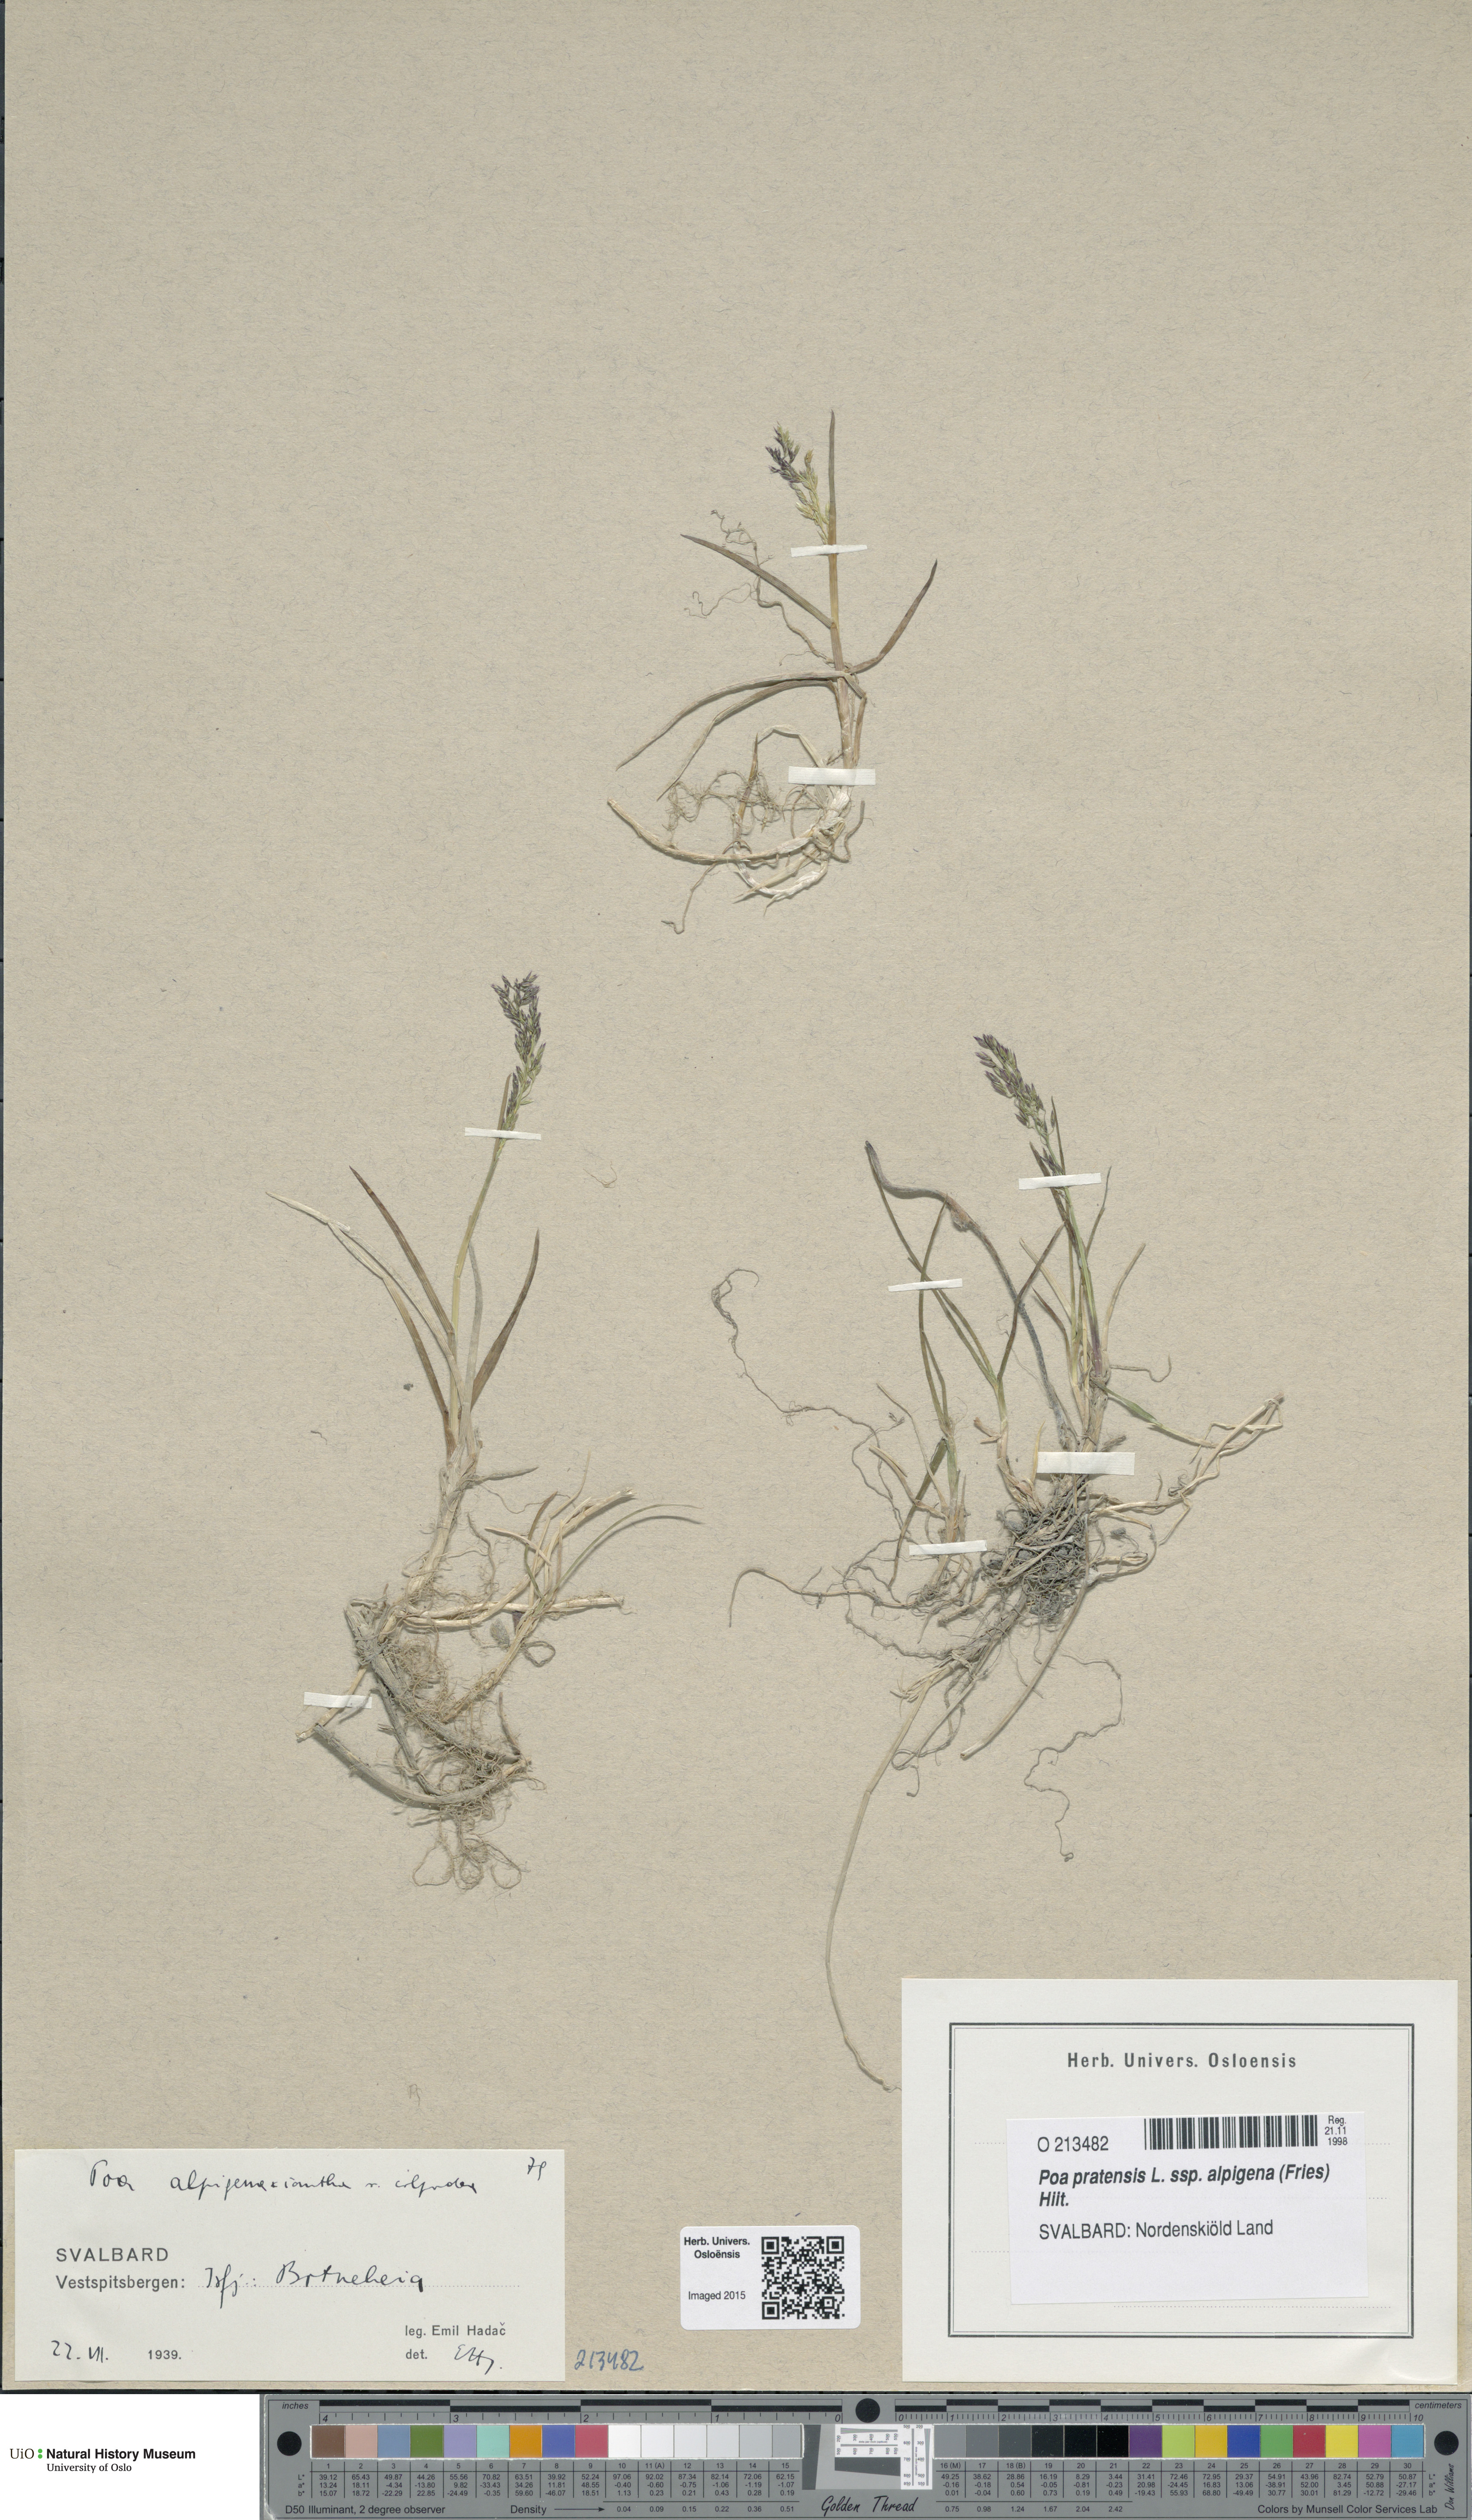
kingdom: Plantae
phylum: Tracheophyta
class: Liliopsida
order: Poales
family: Poaceae
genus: Poa
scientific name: Poa alpigena
